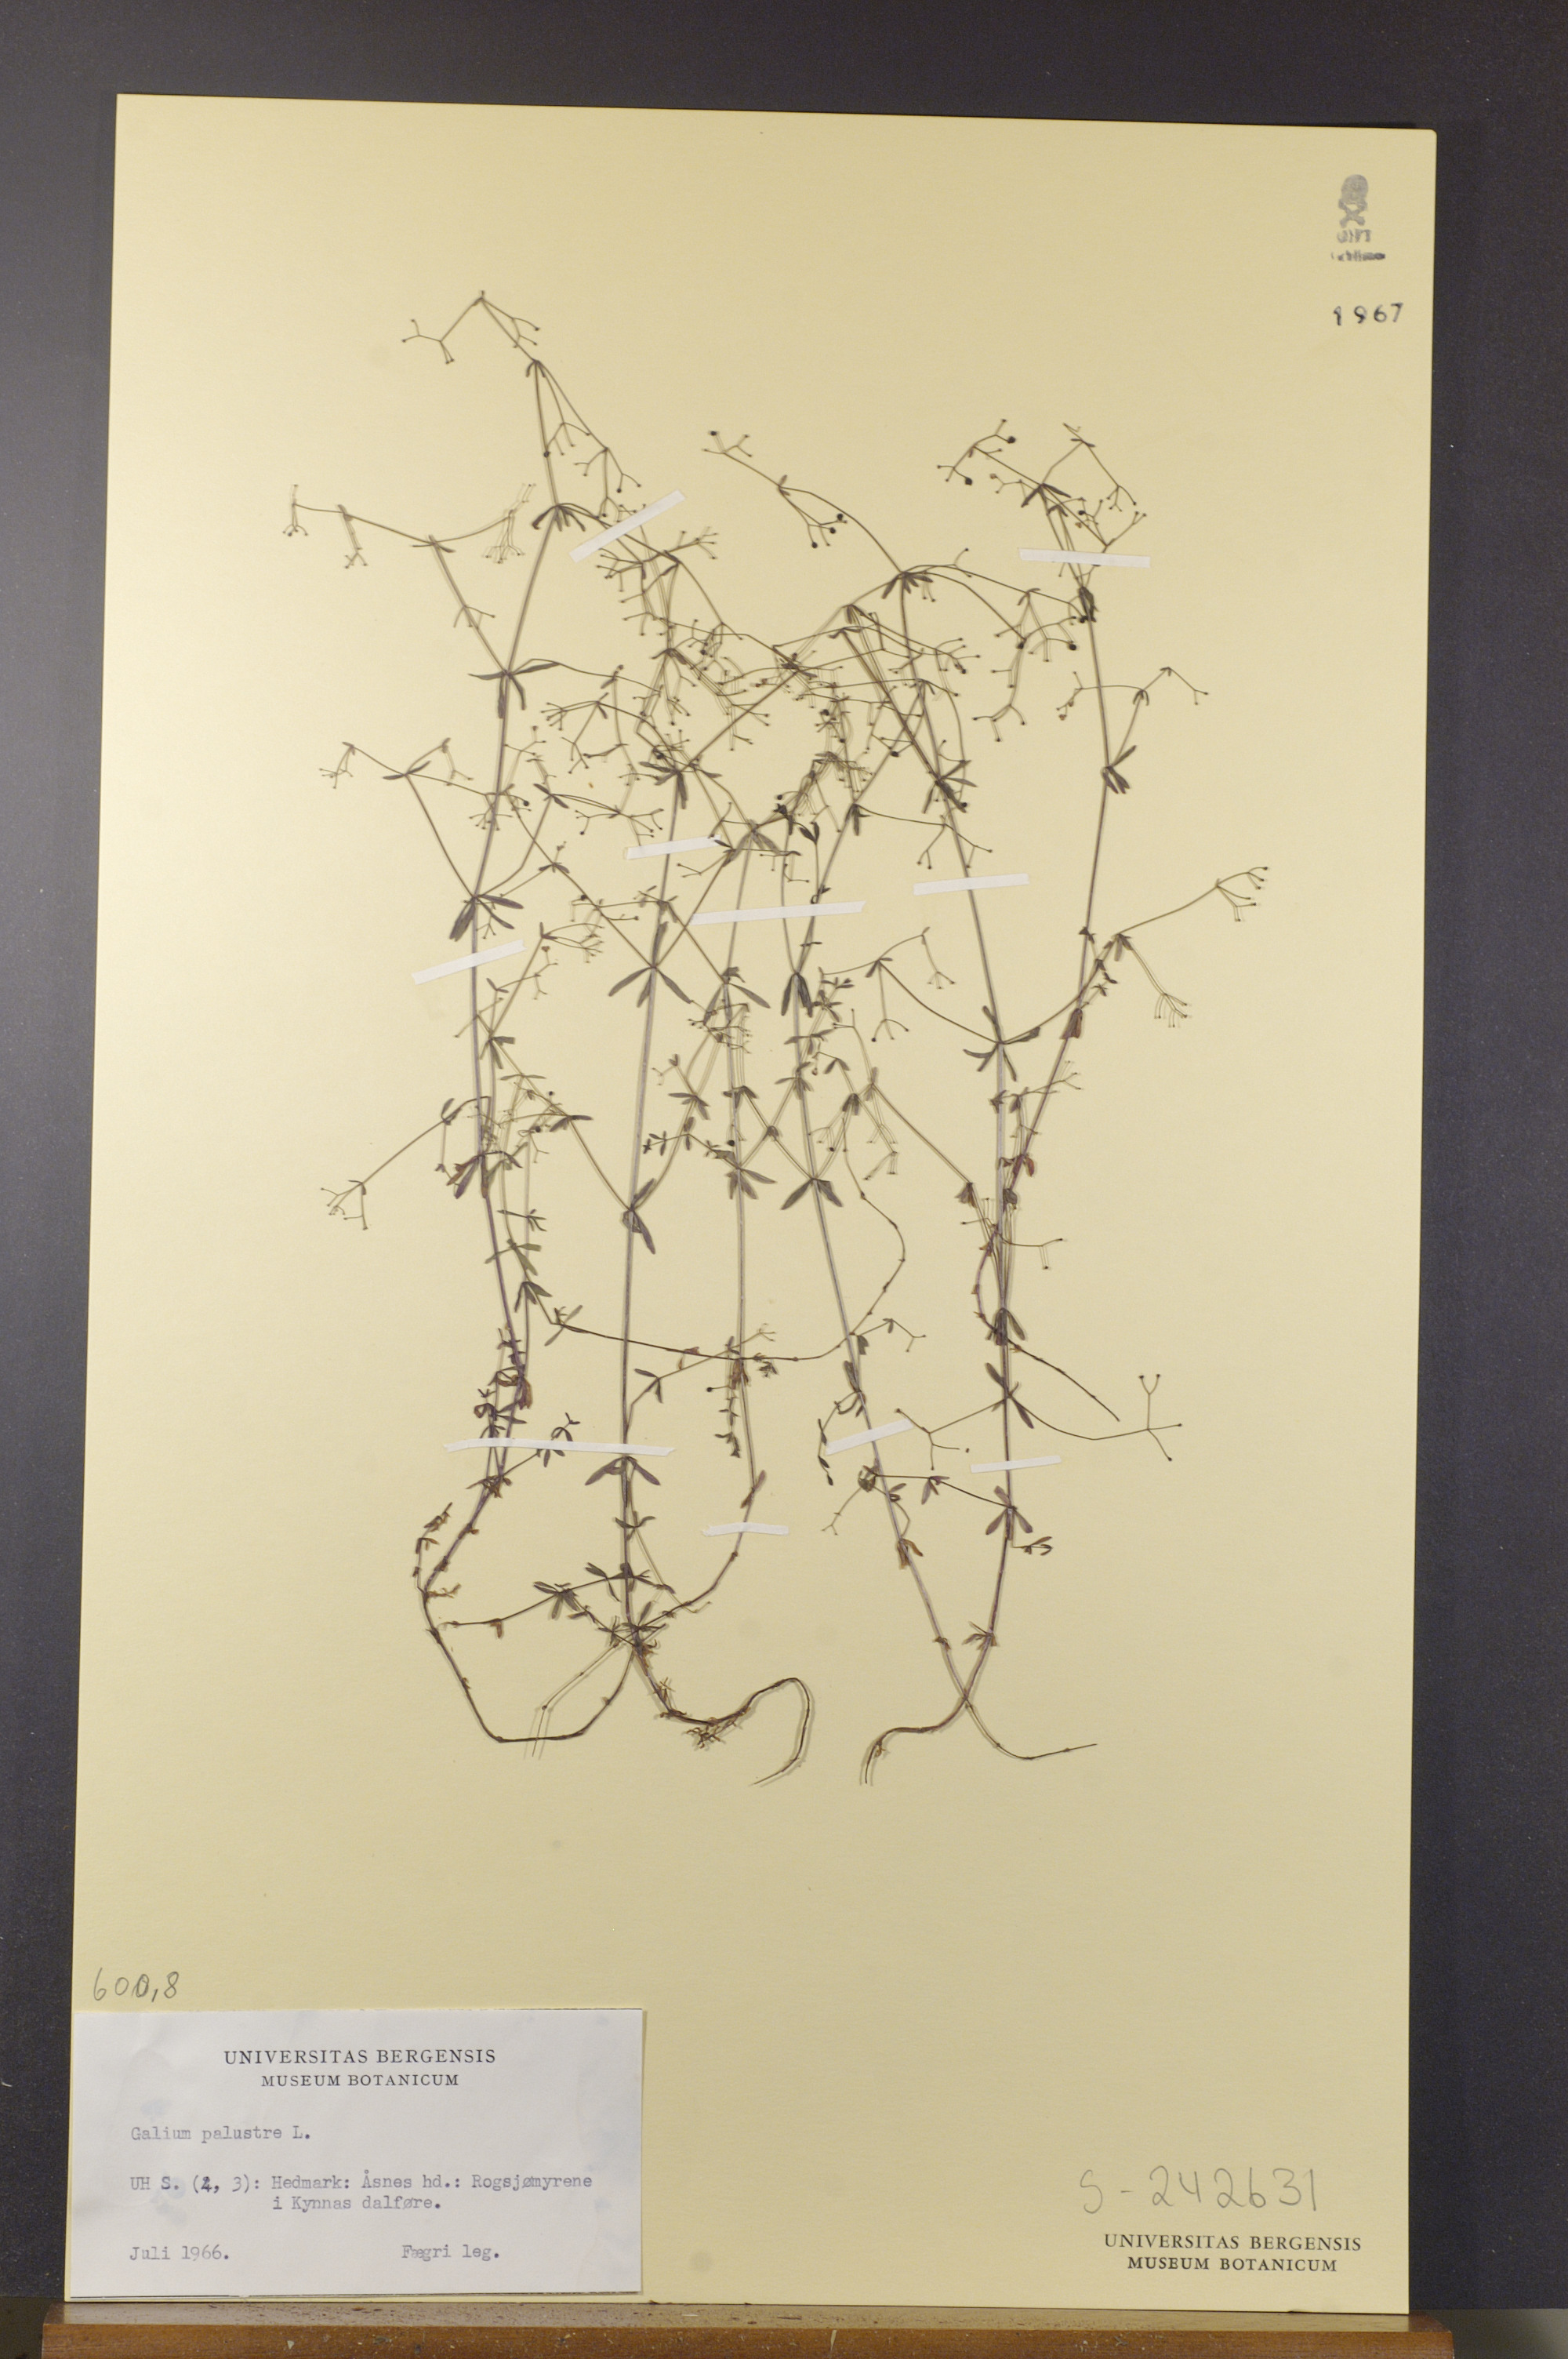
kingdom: Plantae
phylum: Tracheophyta
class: Magnoliopsida
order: Gentianales
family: Rubiaceae
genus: Galium
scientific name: Galium palustre
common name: Common marsh-bedstraw
